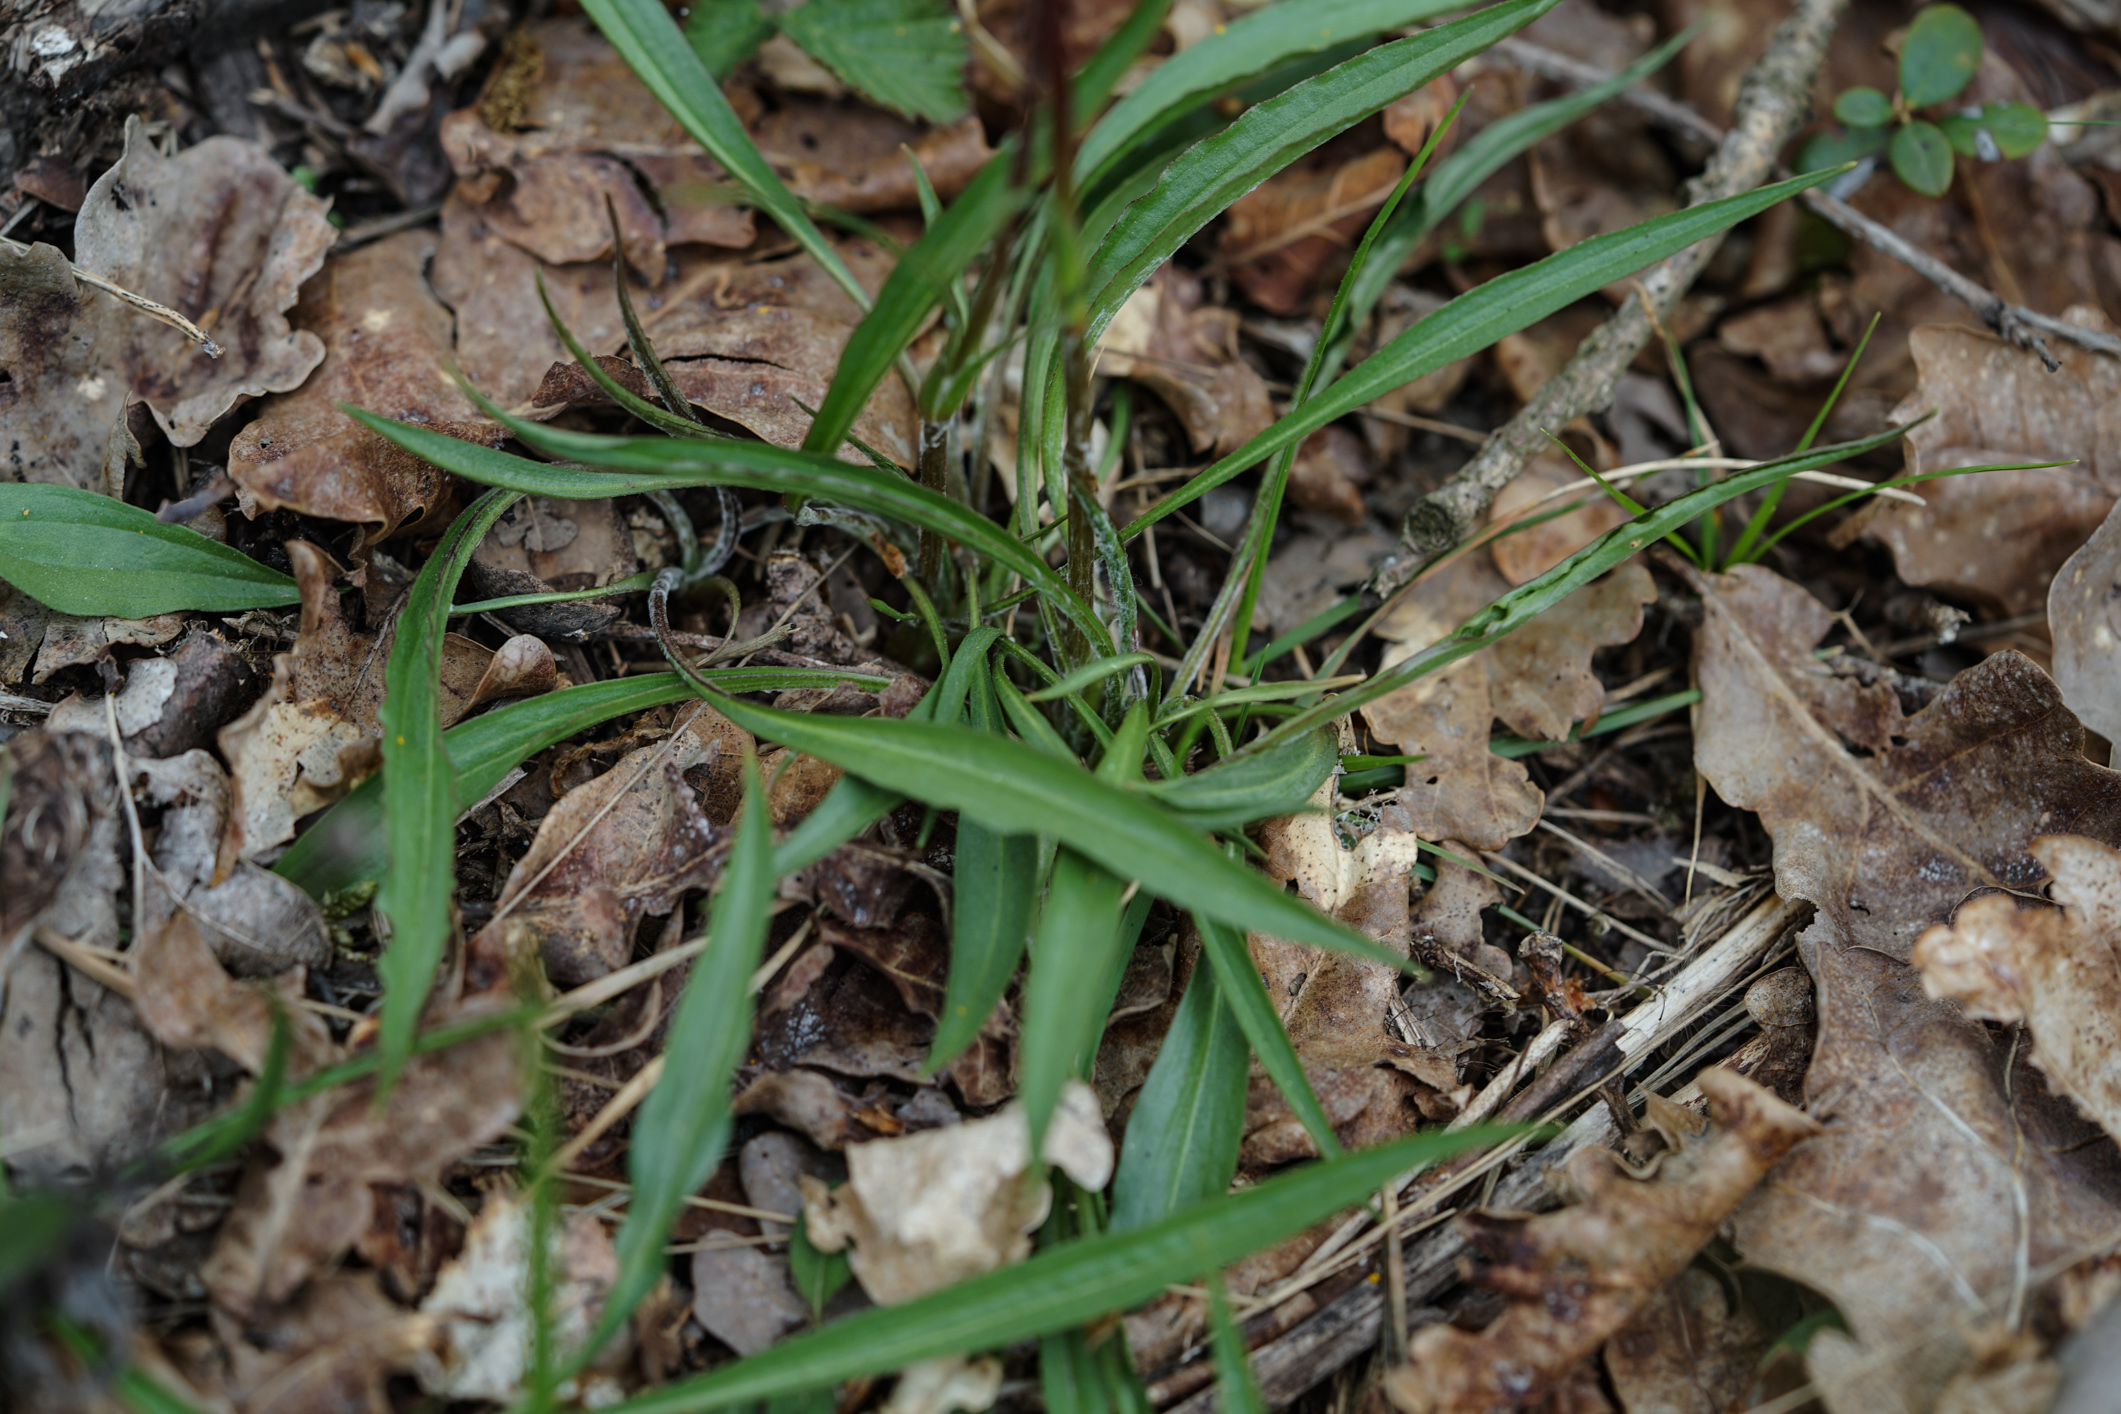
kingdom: Plantae
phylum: Tracheophyta
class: Magnoliopsida
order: Asterales
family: Asteraceae
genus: Scorzonera
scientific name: Scorzonera humilis
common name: Viper's-grass
